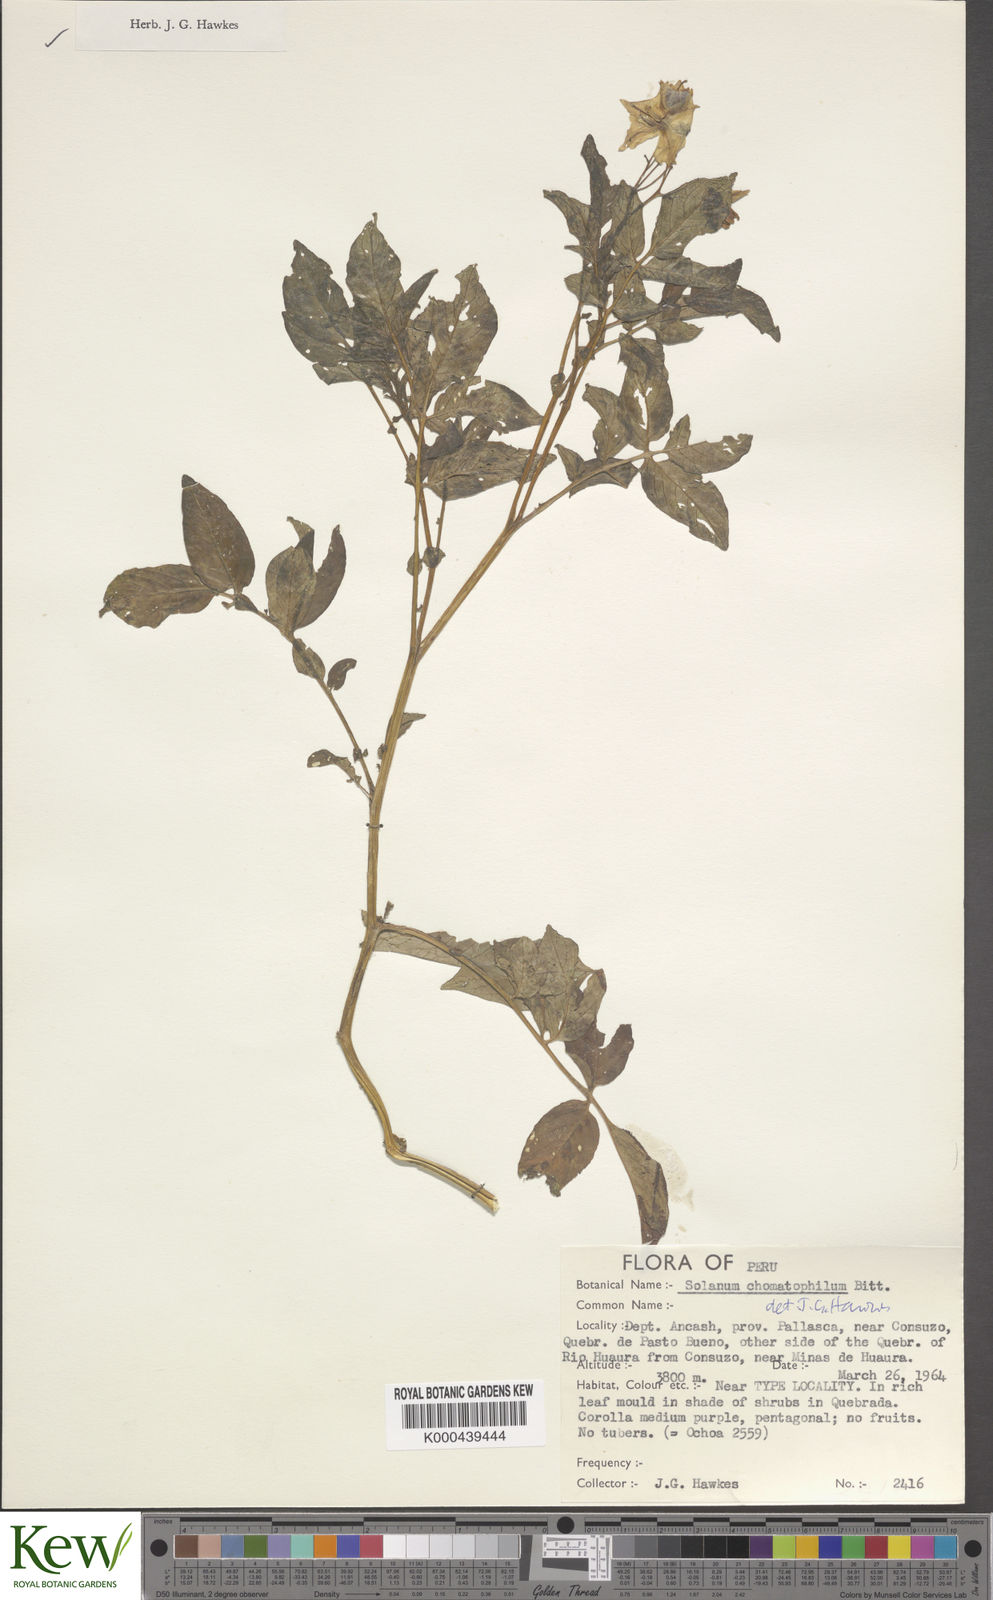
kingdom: Plantae
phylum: Tracheophyta
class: Magnoliopsida
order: Solanales
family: Solanaceae
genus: Solanum
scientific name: Solanum chomatophilum
